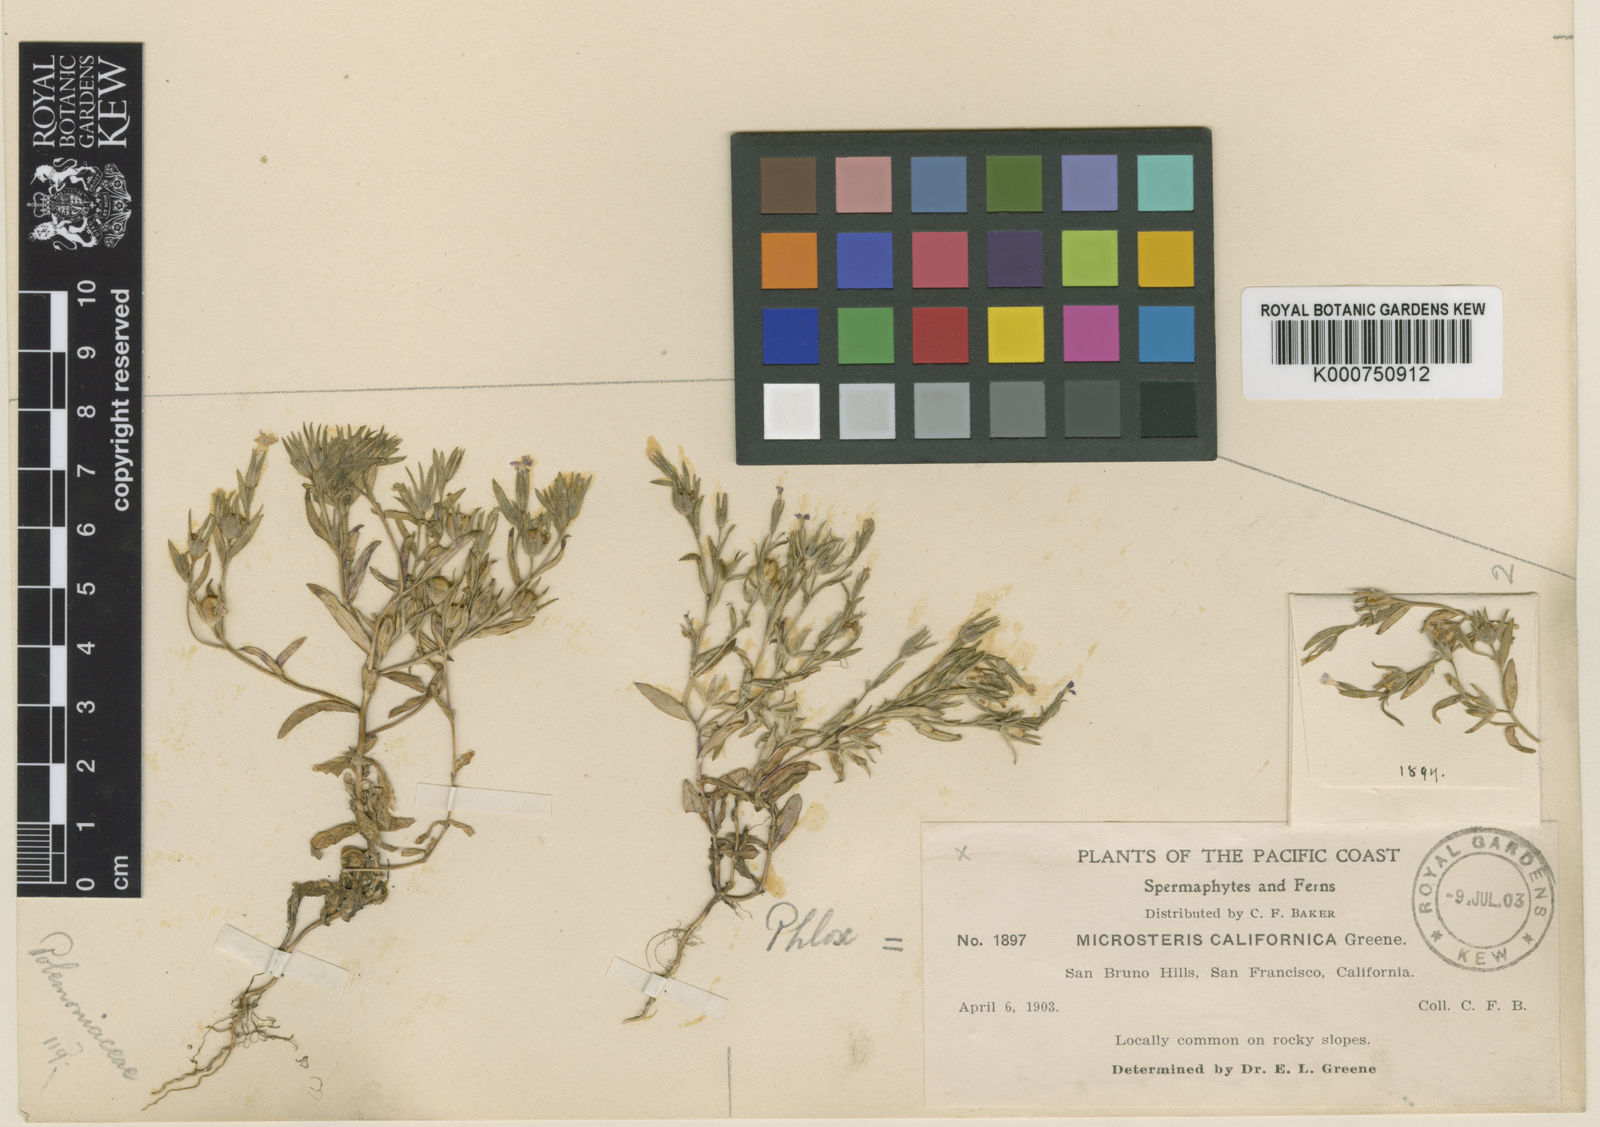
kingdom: Plantae
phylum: Tracheophyta
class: Magnoliopsida
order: Ericales
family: Polemoniaceae
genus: Phlox
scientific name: Phlox gracilis
